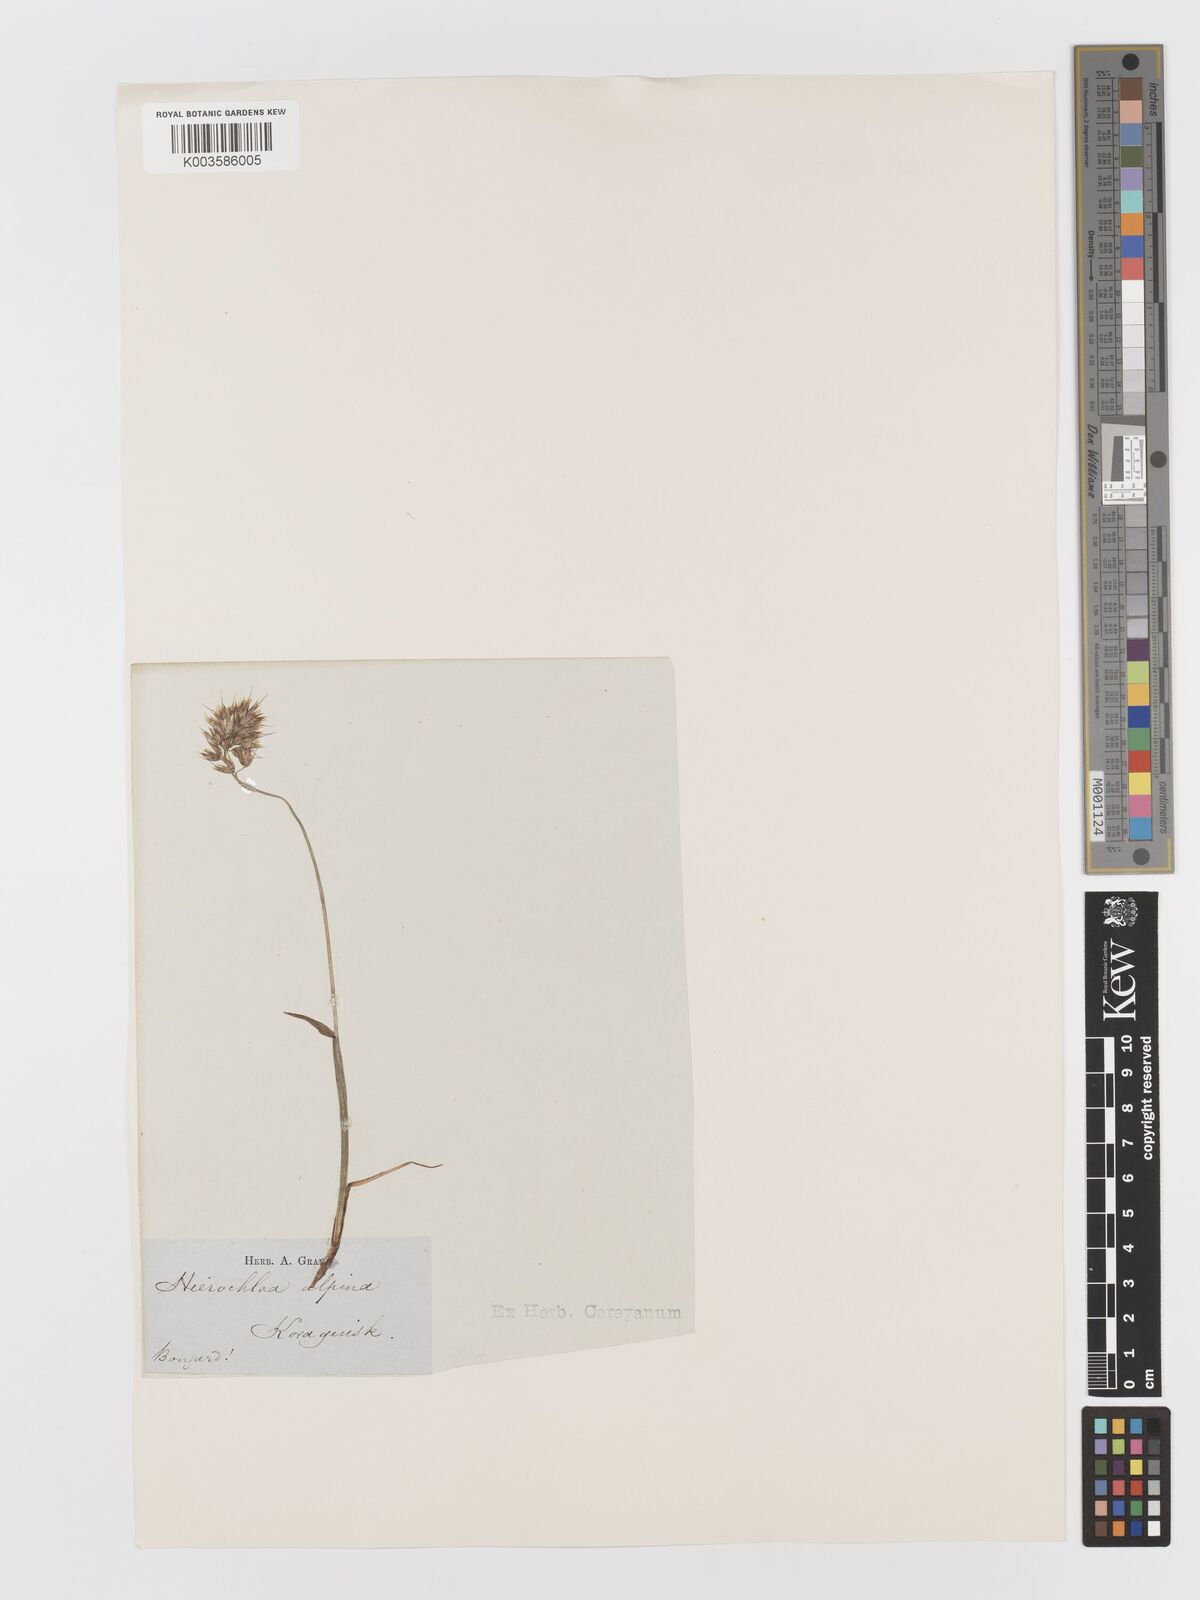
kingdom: Plantae
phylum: Tracheophyta
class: Liliopsida
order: Poales
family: Poaceae
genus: Anthoxanthum
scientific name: Anthoxanthum monticola
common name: Alpine sweetgrass
